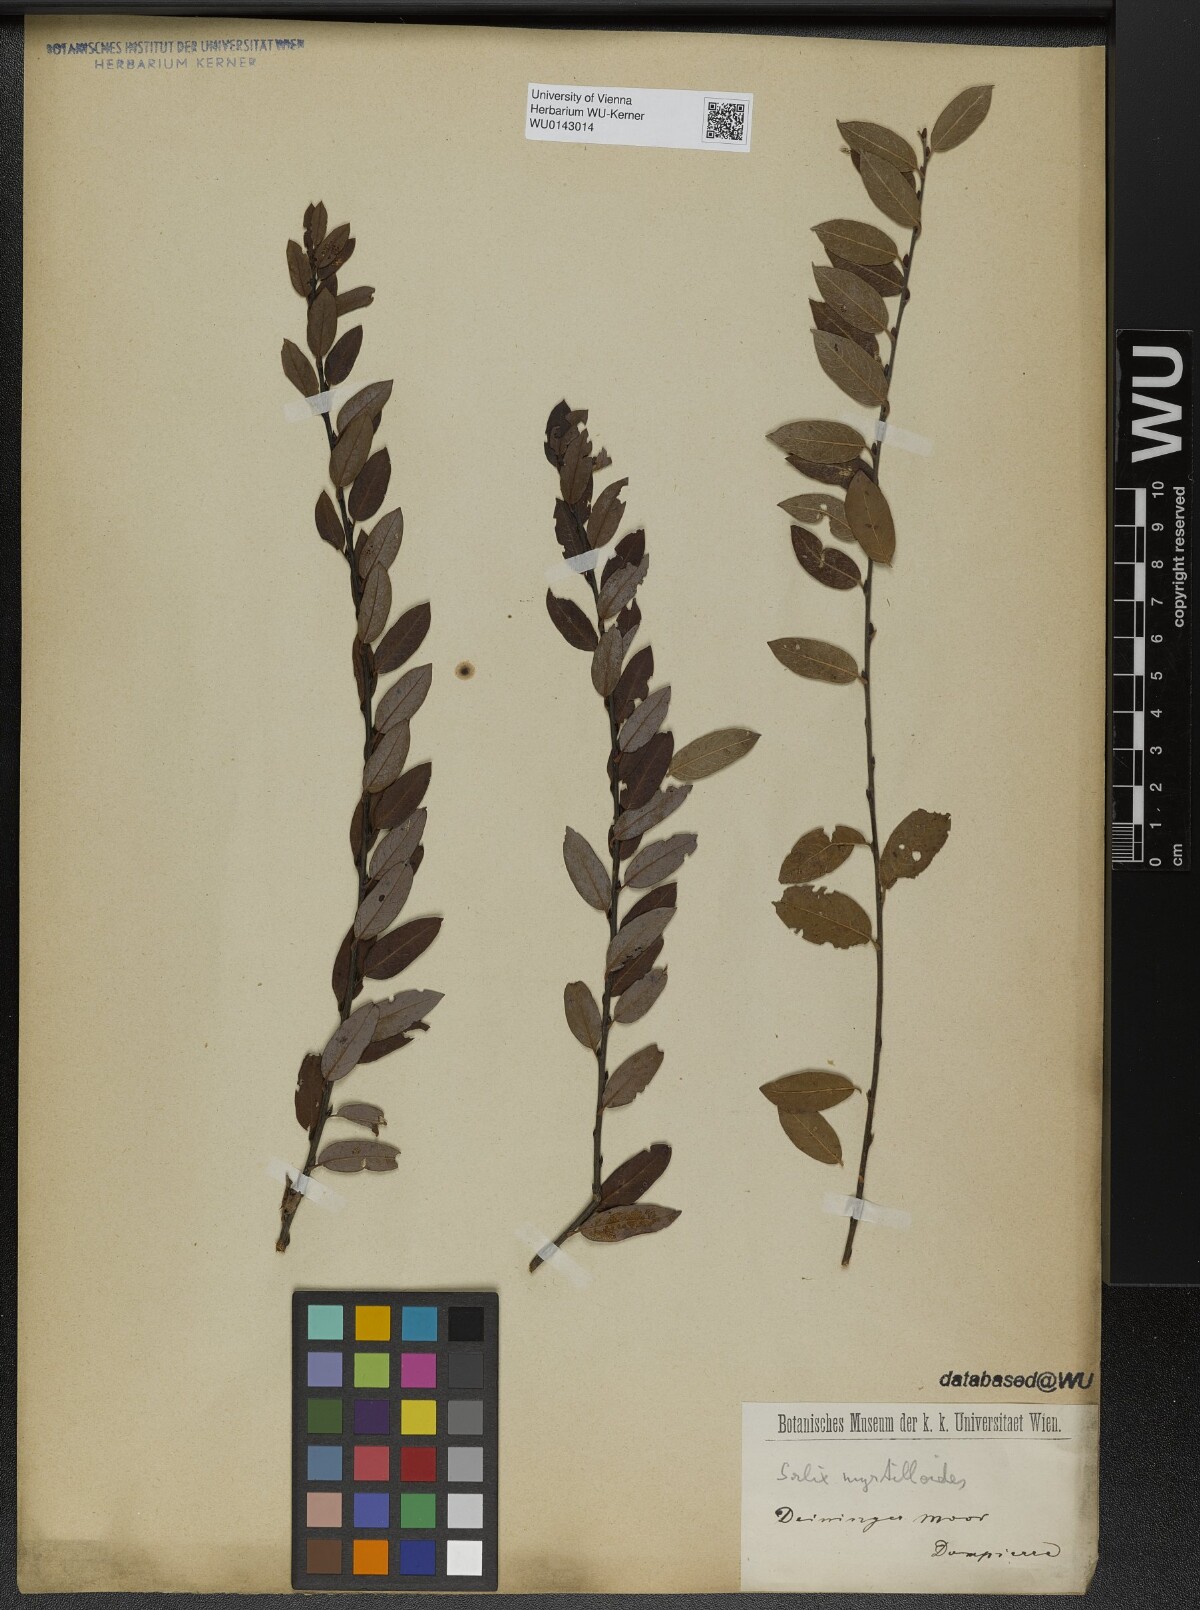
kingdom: Plantae
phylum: Tracheophyta
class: Magnoliopsida
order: Malpighiales
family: Salicaceae
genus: Salix
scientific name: Salix myrtilloides
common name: Myrtle-leaved willow
